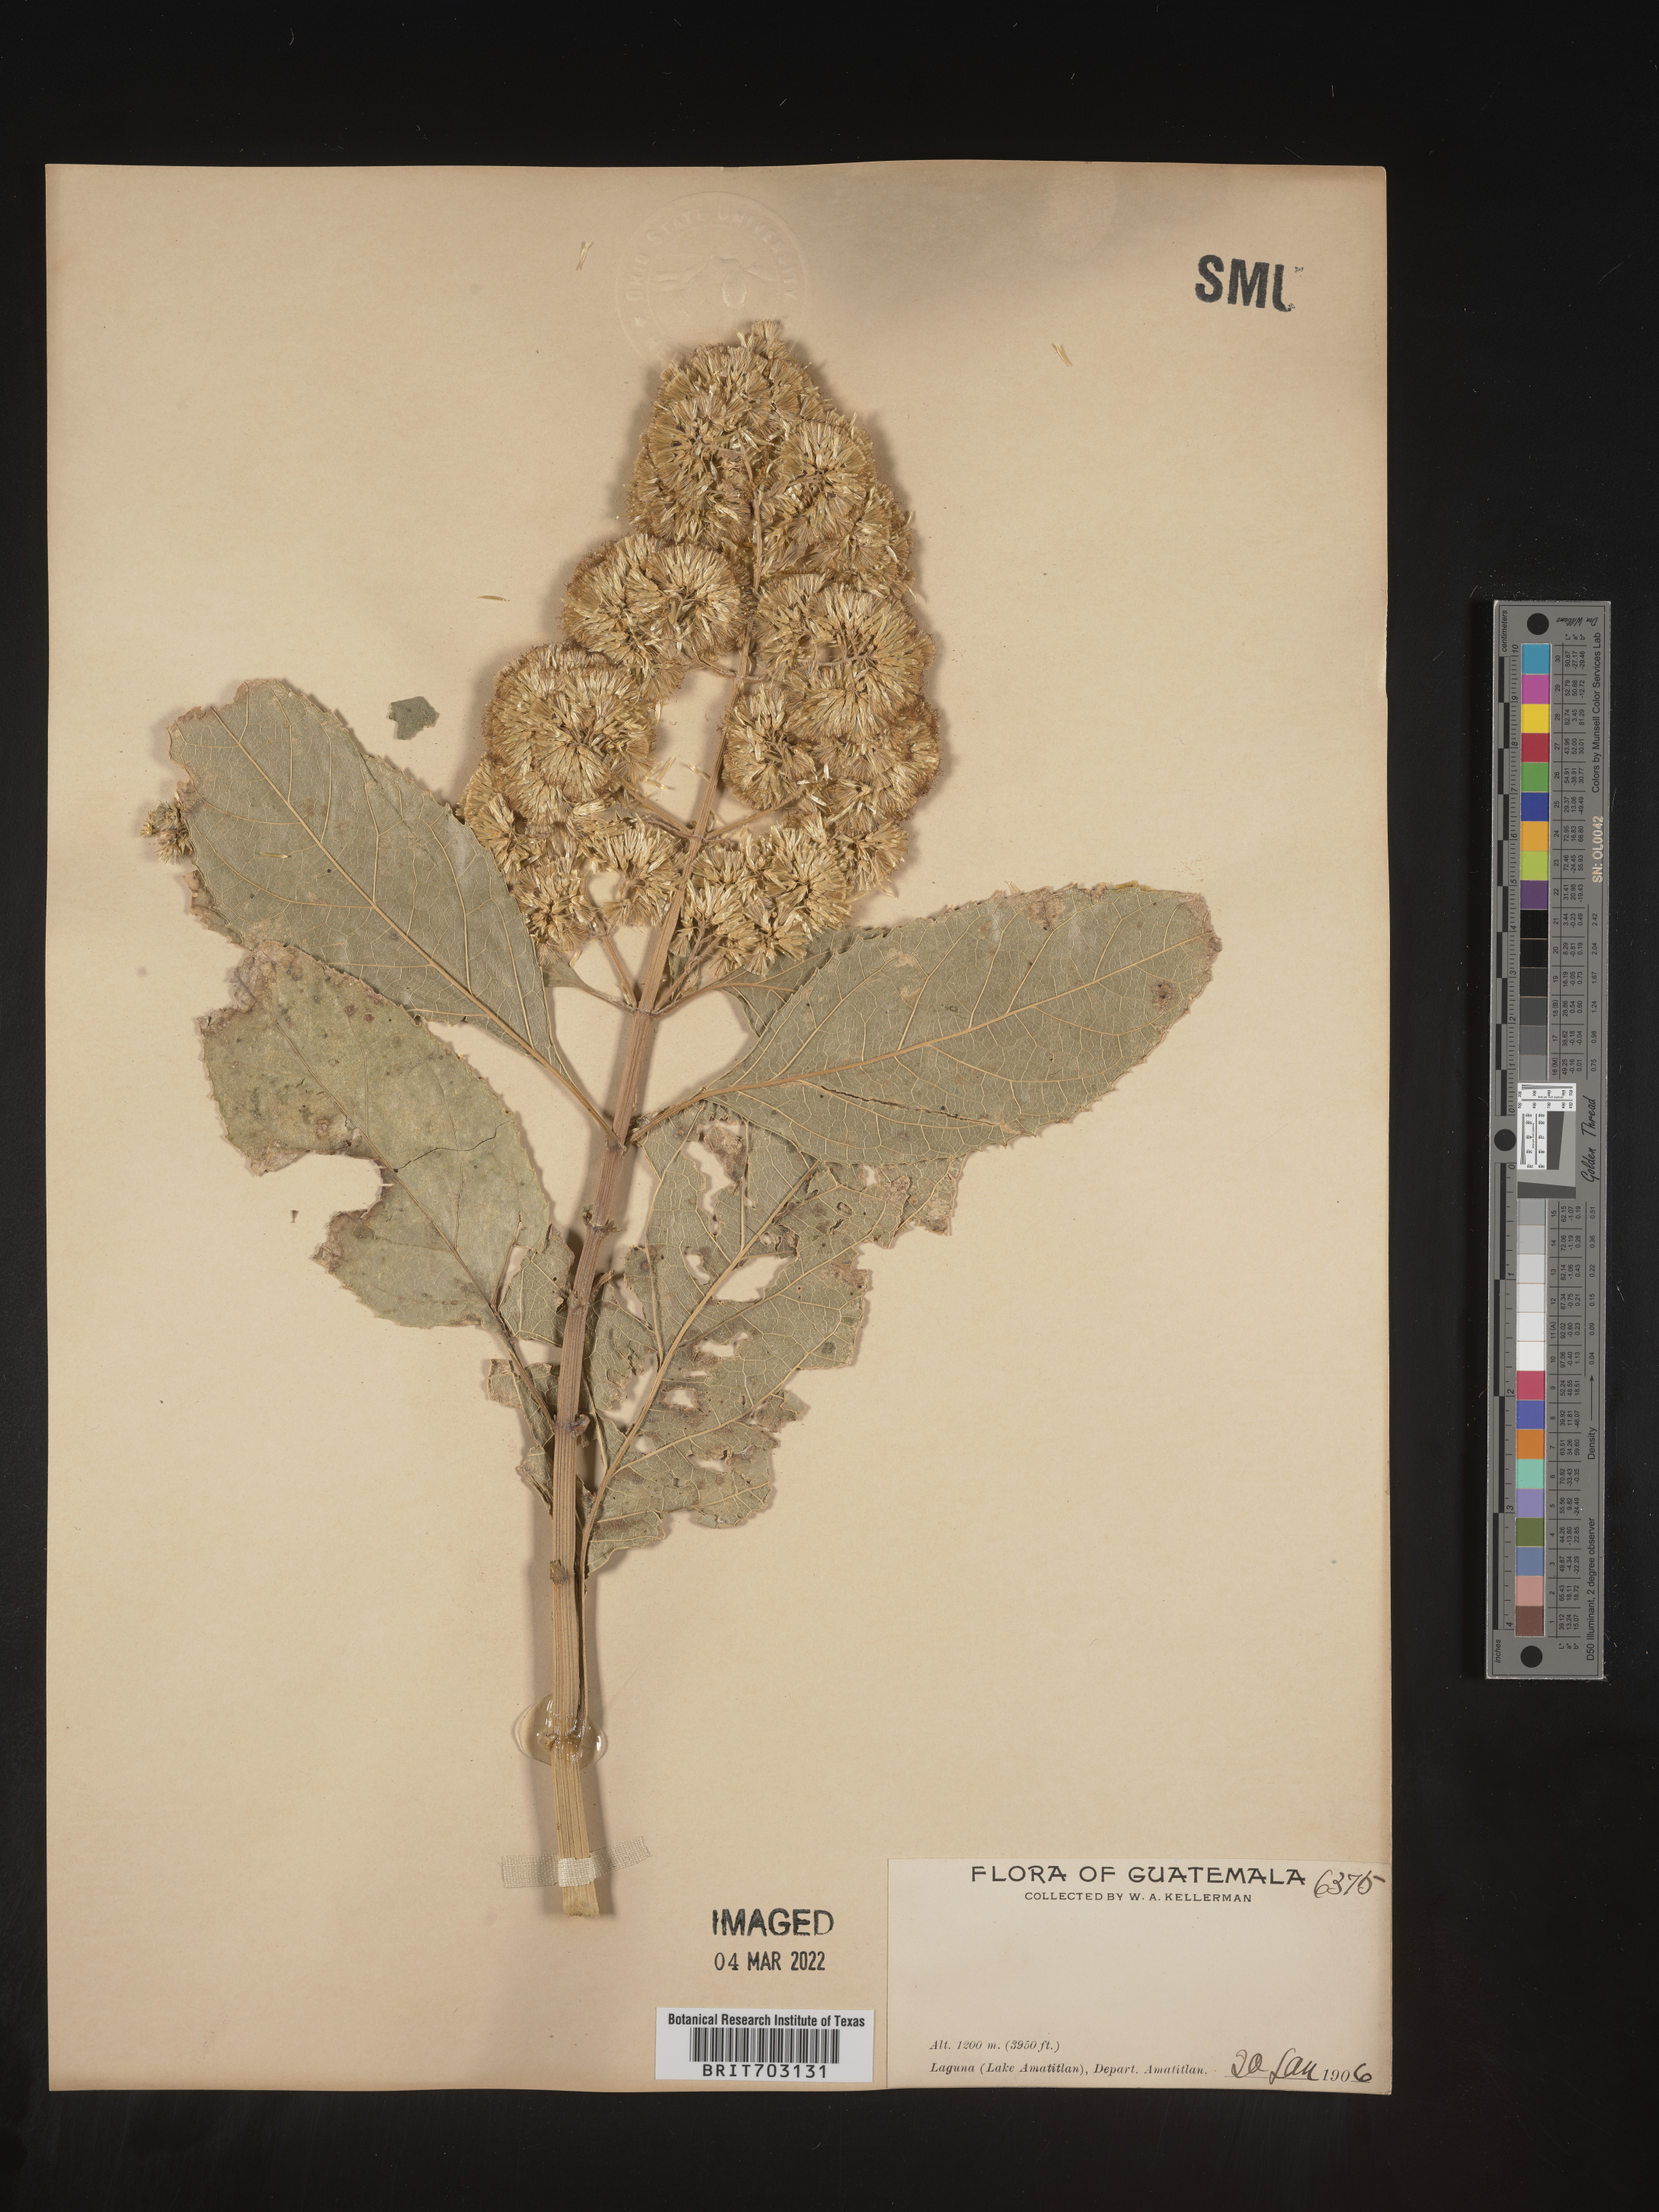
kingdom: Plantae
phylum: Tracheophyta
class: Magnoliopsida
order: Asterales
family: Asteraceae
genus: Eupatorium
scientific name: Eupatorium
